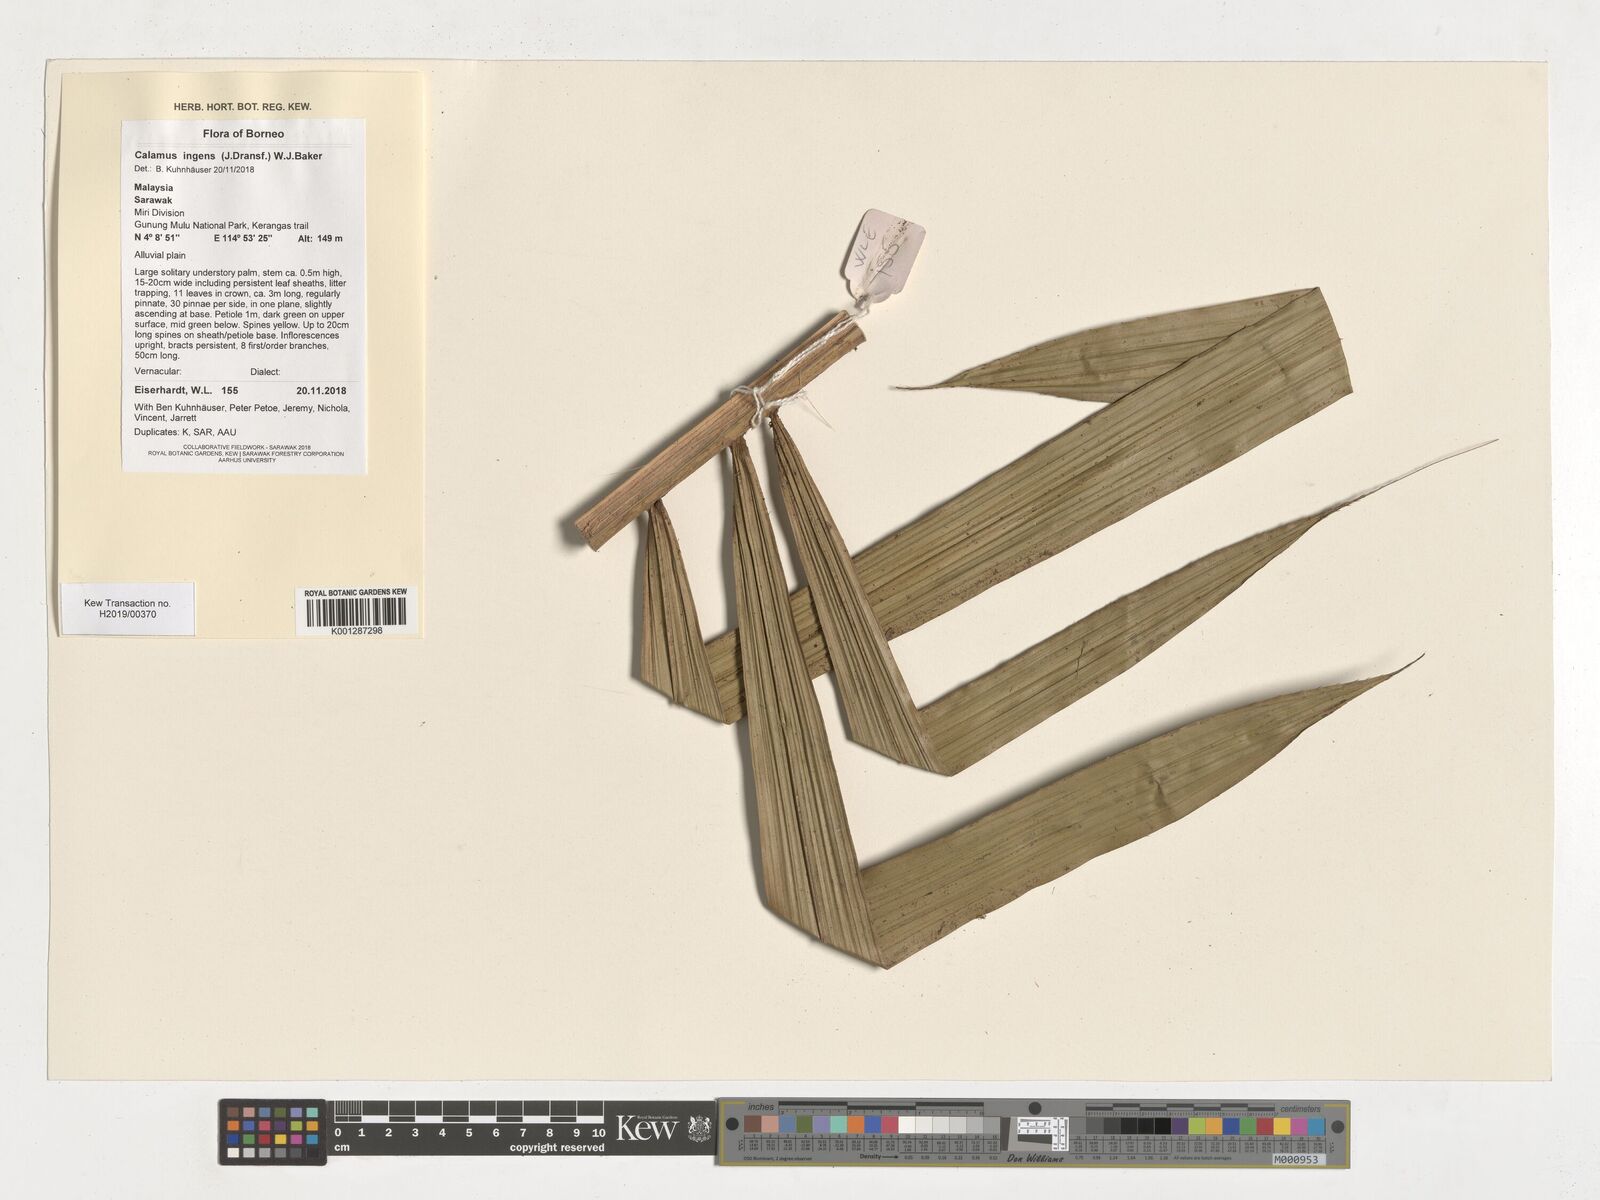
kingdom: Plantae
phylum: Tracheophyta
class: Liliopsida
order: Arecales
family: Arecaceae
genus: Calamus
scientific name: Calamus ingens
